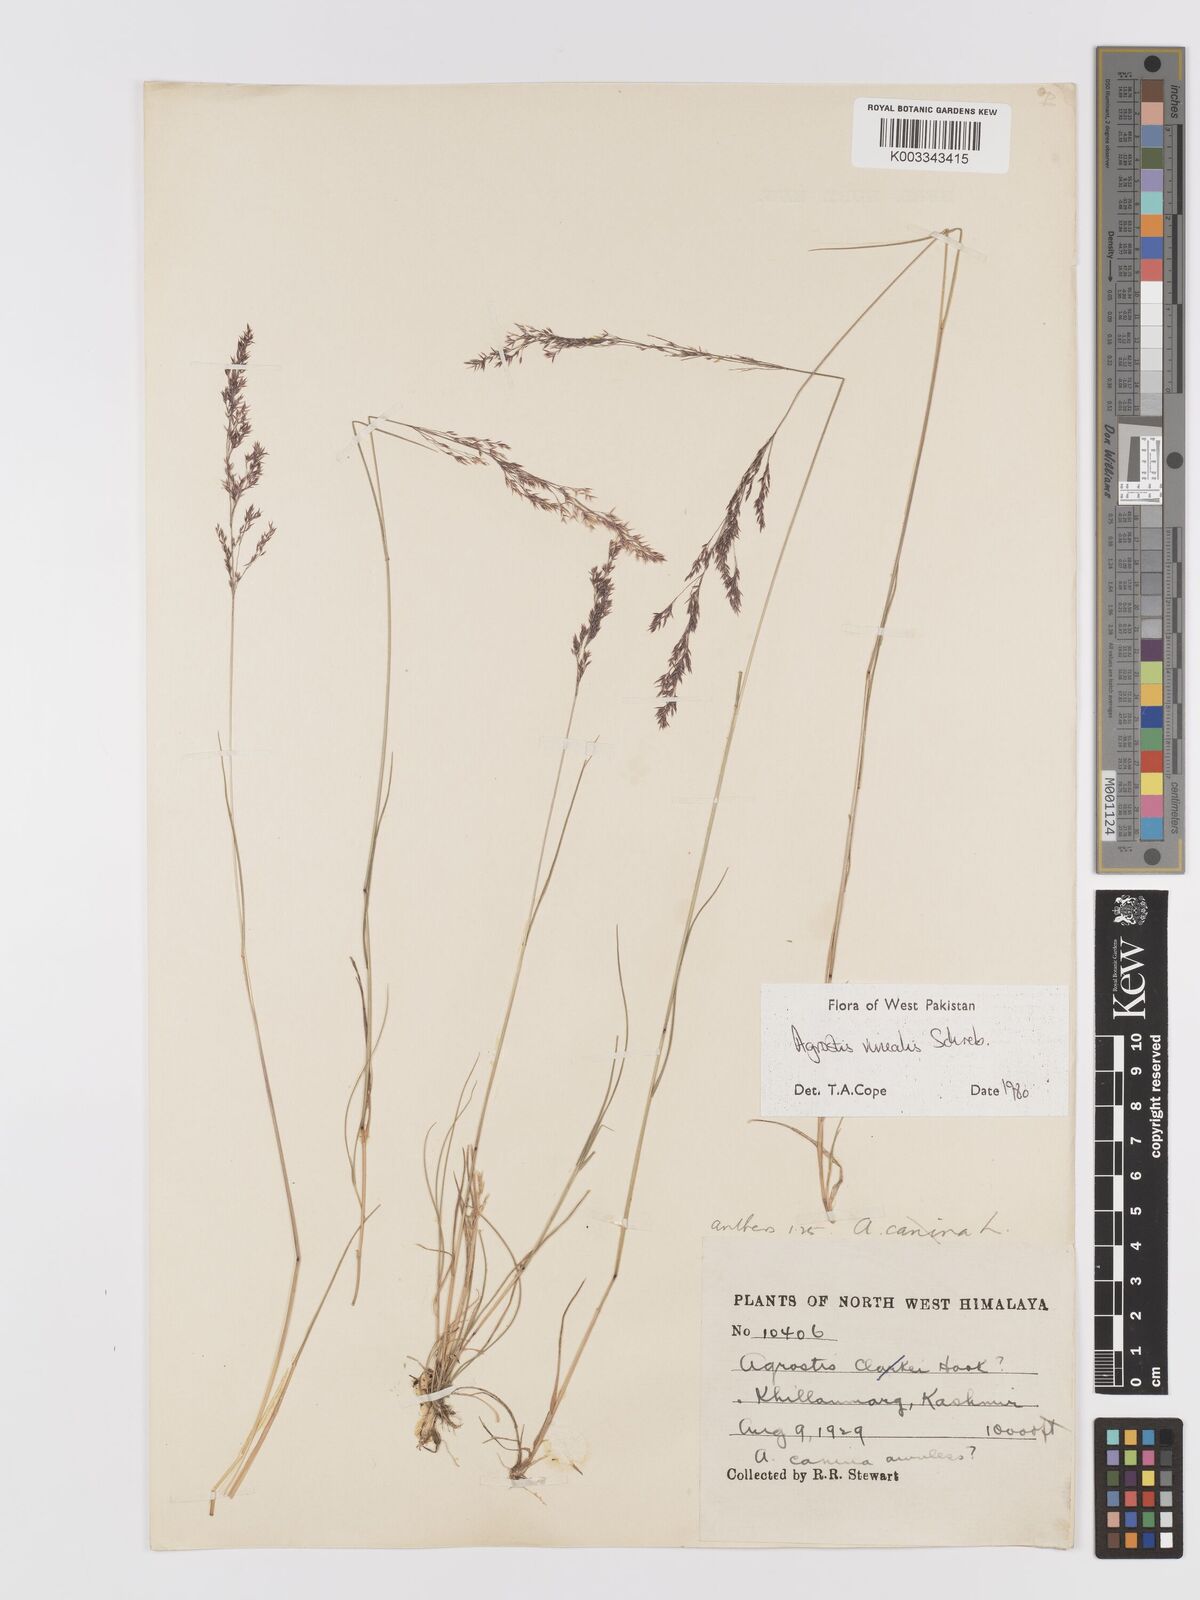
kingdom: Plantae
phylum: Tracheophyta
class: Liliopsida
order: Poales
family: Poaceae
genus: Agrostis
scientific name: Agrostis vinealis
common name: Brown bent
